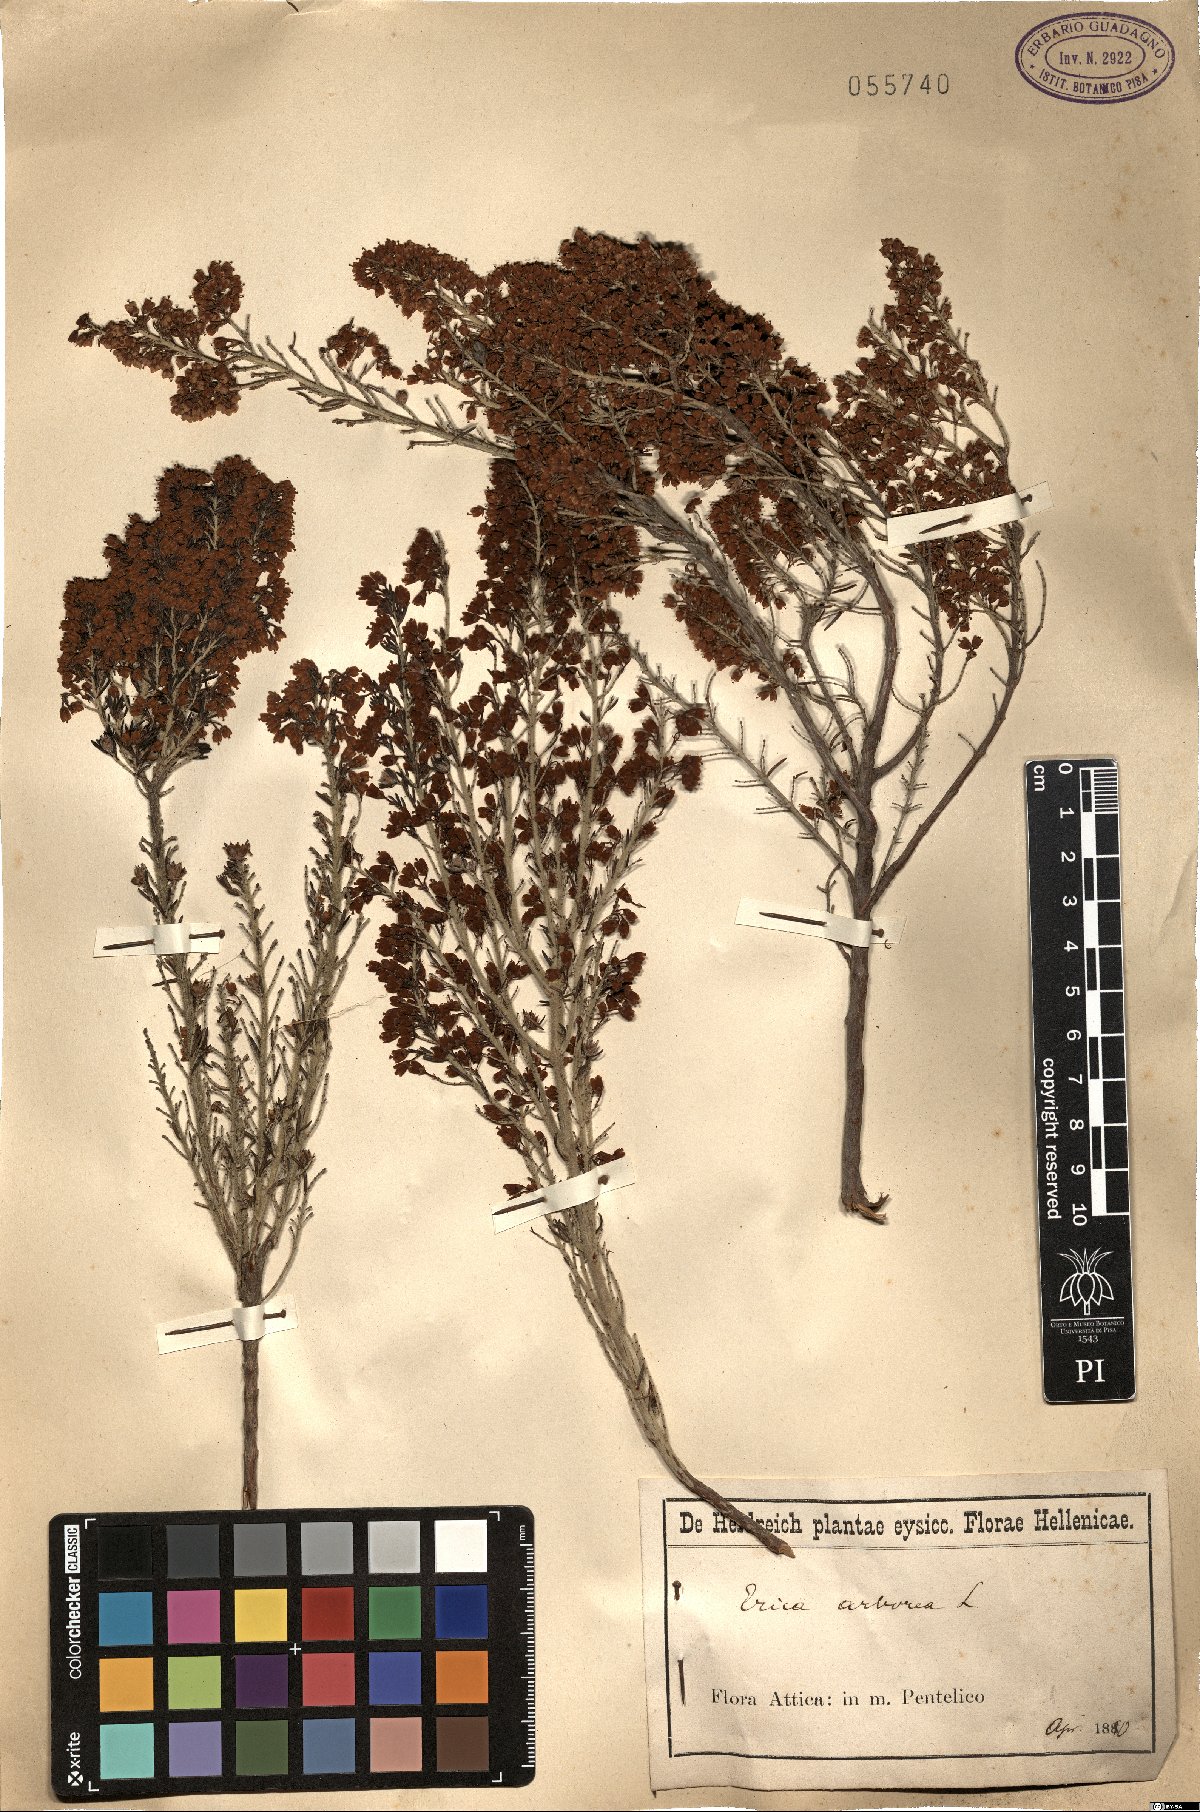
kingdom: Plantae
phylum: Tracheophyta
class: Magnoliopsida
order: Ericales
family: Ericaceae
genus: Erica
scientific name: Erica arborea
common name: Tree heath
